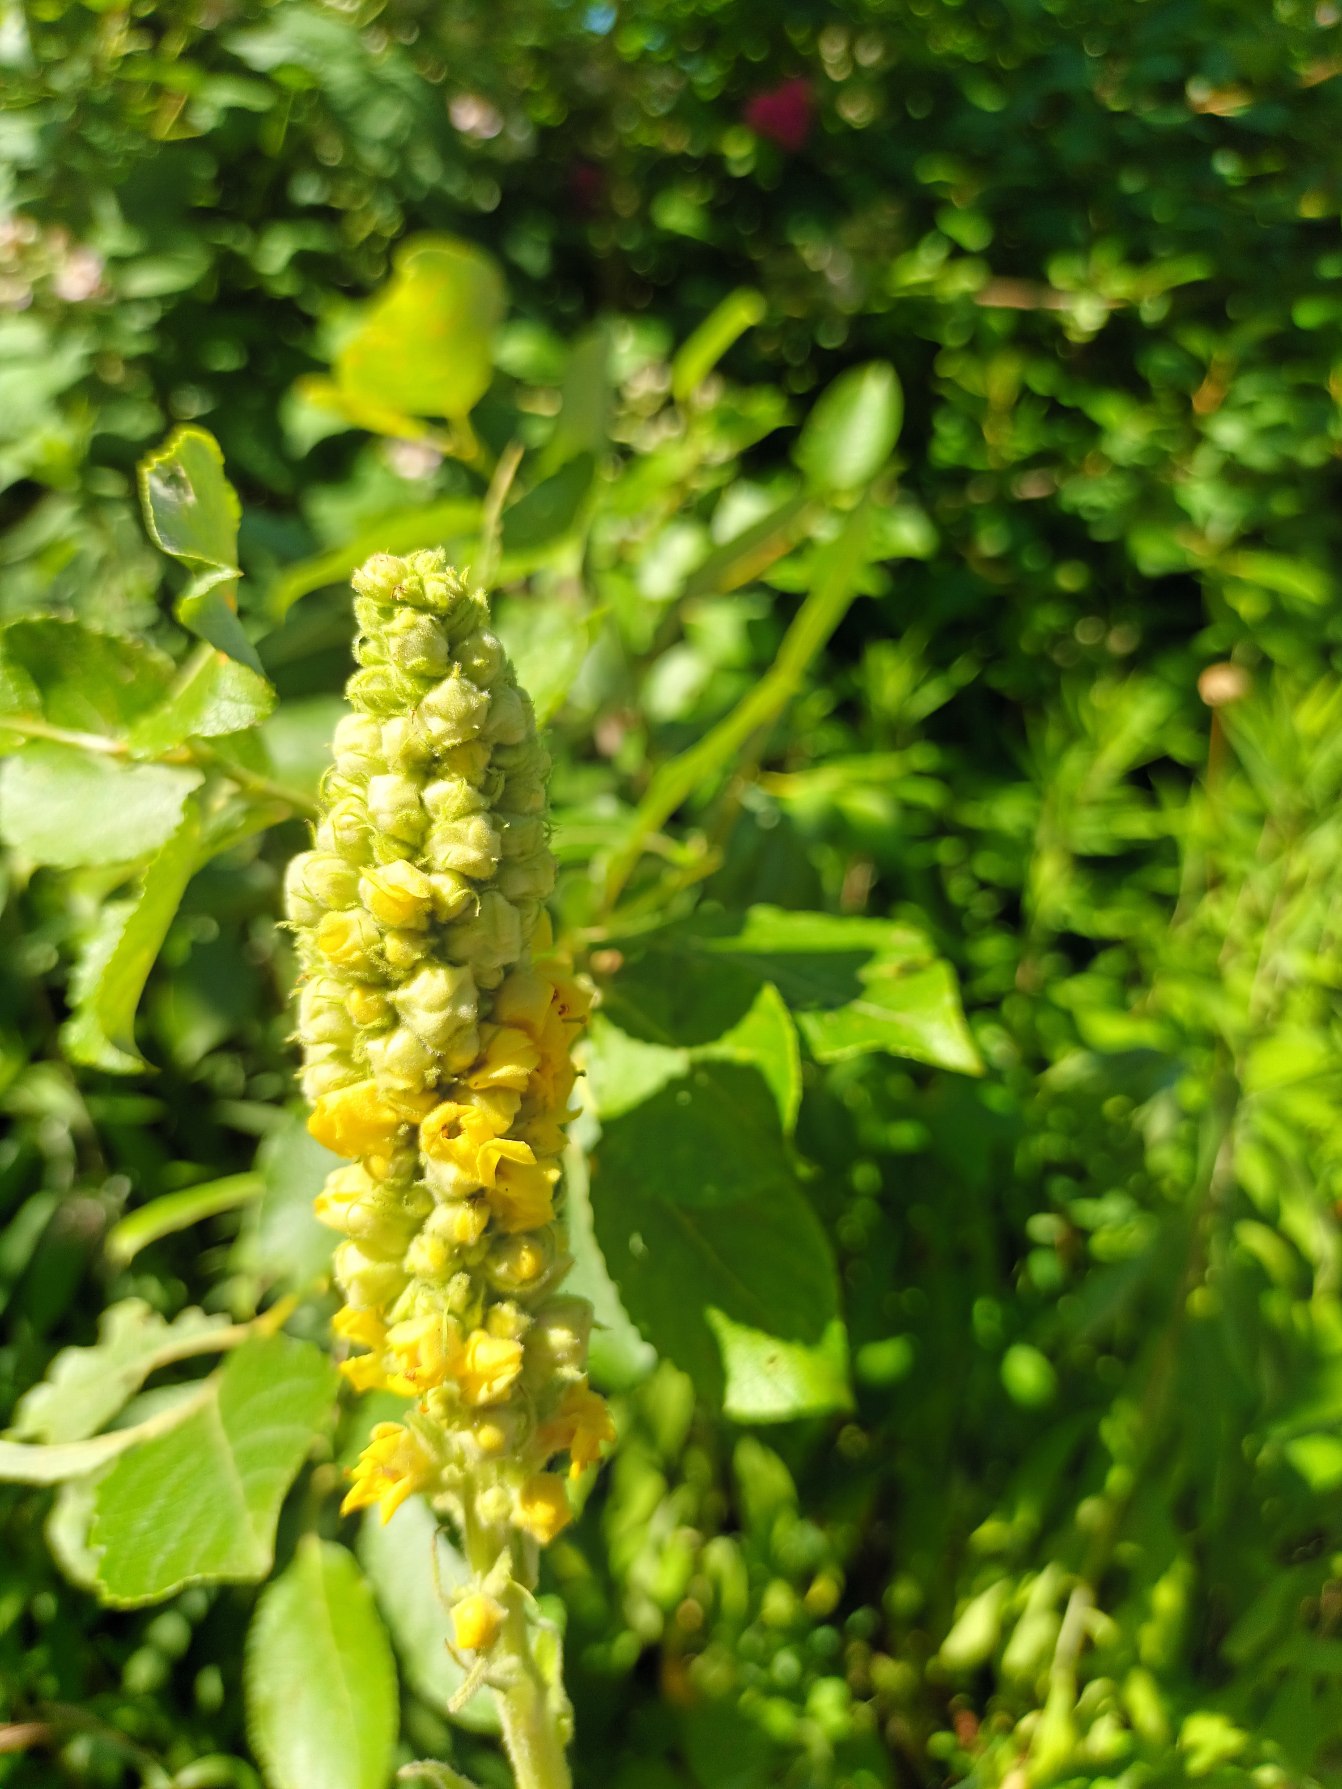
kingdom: Plantae
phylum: Tracheophyta
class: Magnoliopsida
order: Lamiales
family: Scrophulariaceae
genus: Verbascum
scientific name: Verbascum thapsus
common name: Filtbladet kongelys
